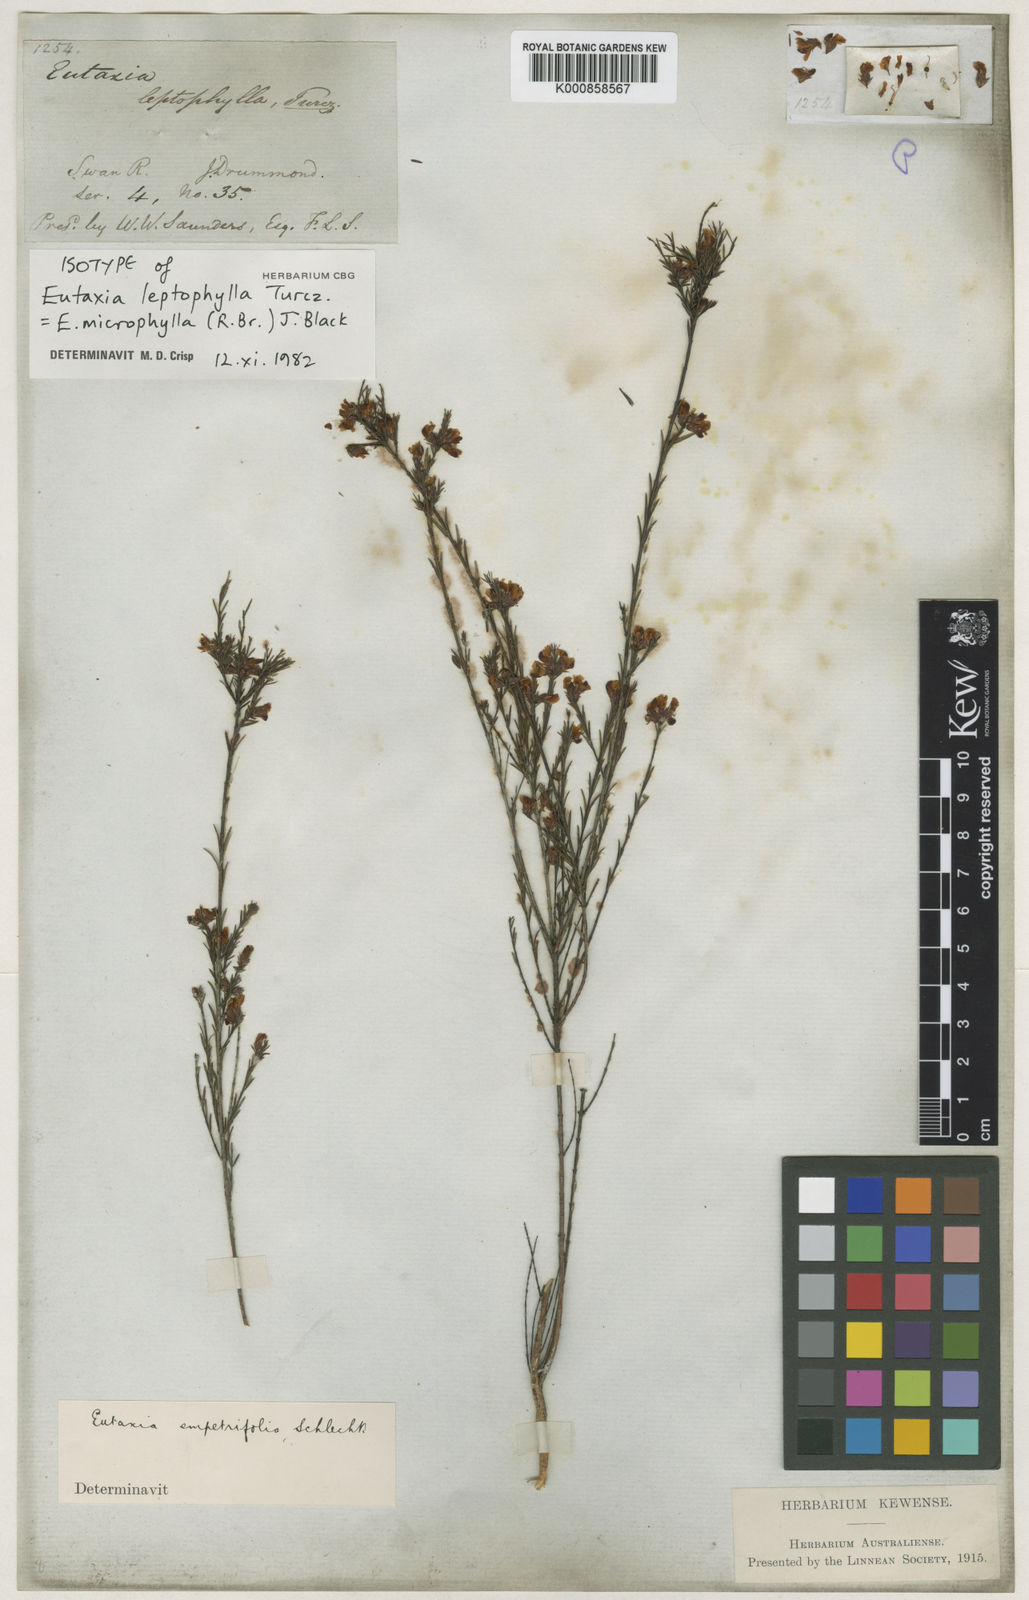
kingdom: Plantae
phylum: Tracheophyta
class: Magnoliopsida
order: Fabales
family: Fabaceae
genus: Eutaxia
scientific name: Eutaxia leptophylla
